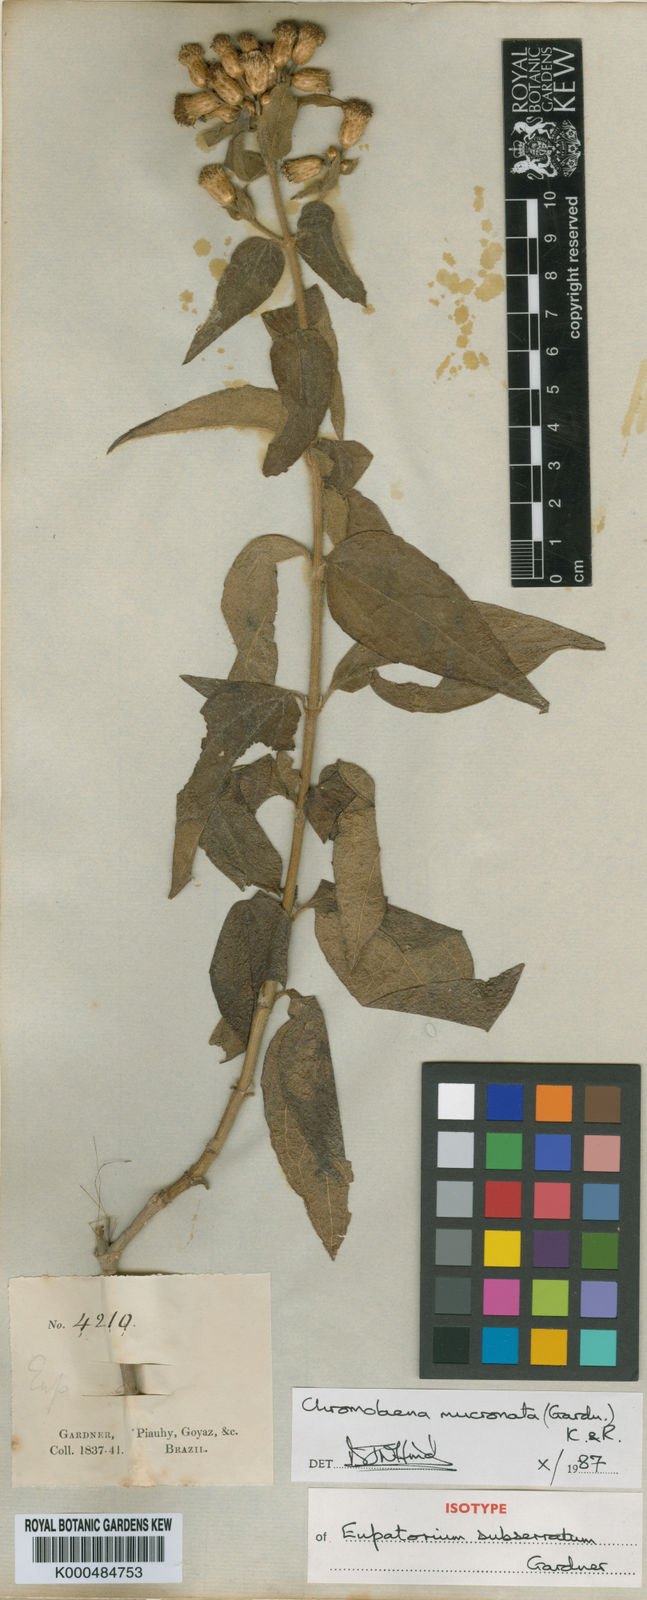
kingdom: Plantae
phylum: Tracheophyta
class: Magnoliopsida
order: Asterales
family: Asteraceae
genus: Chromolaena
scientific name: Chromolaena mucronata
